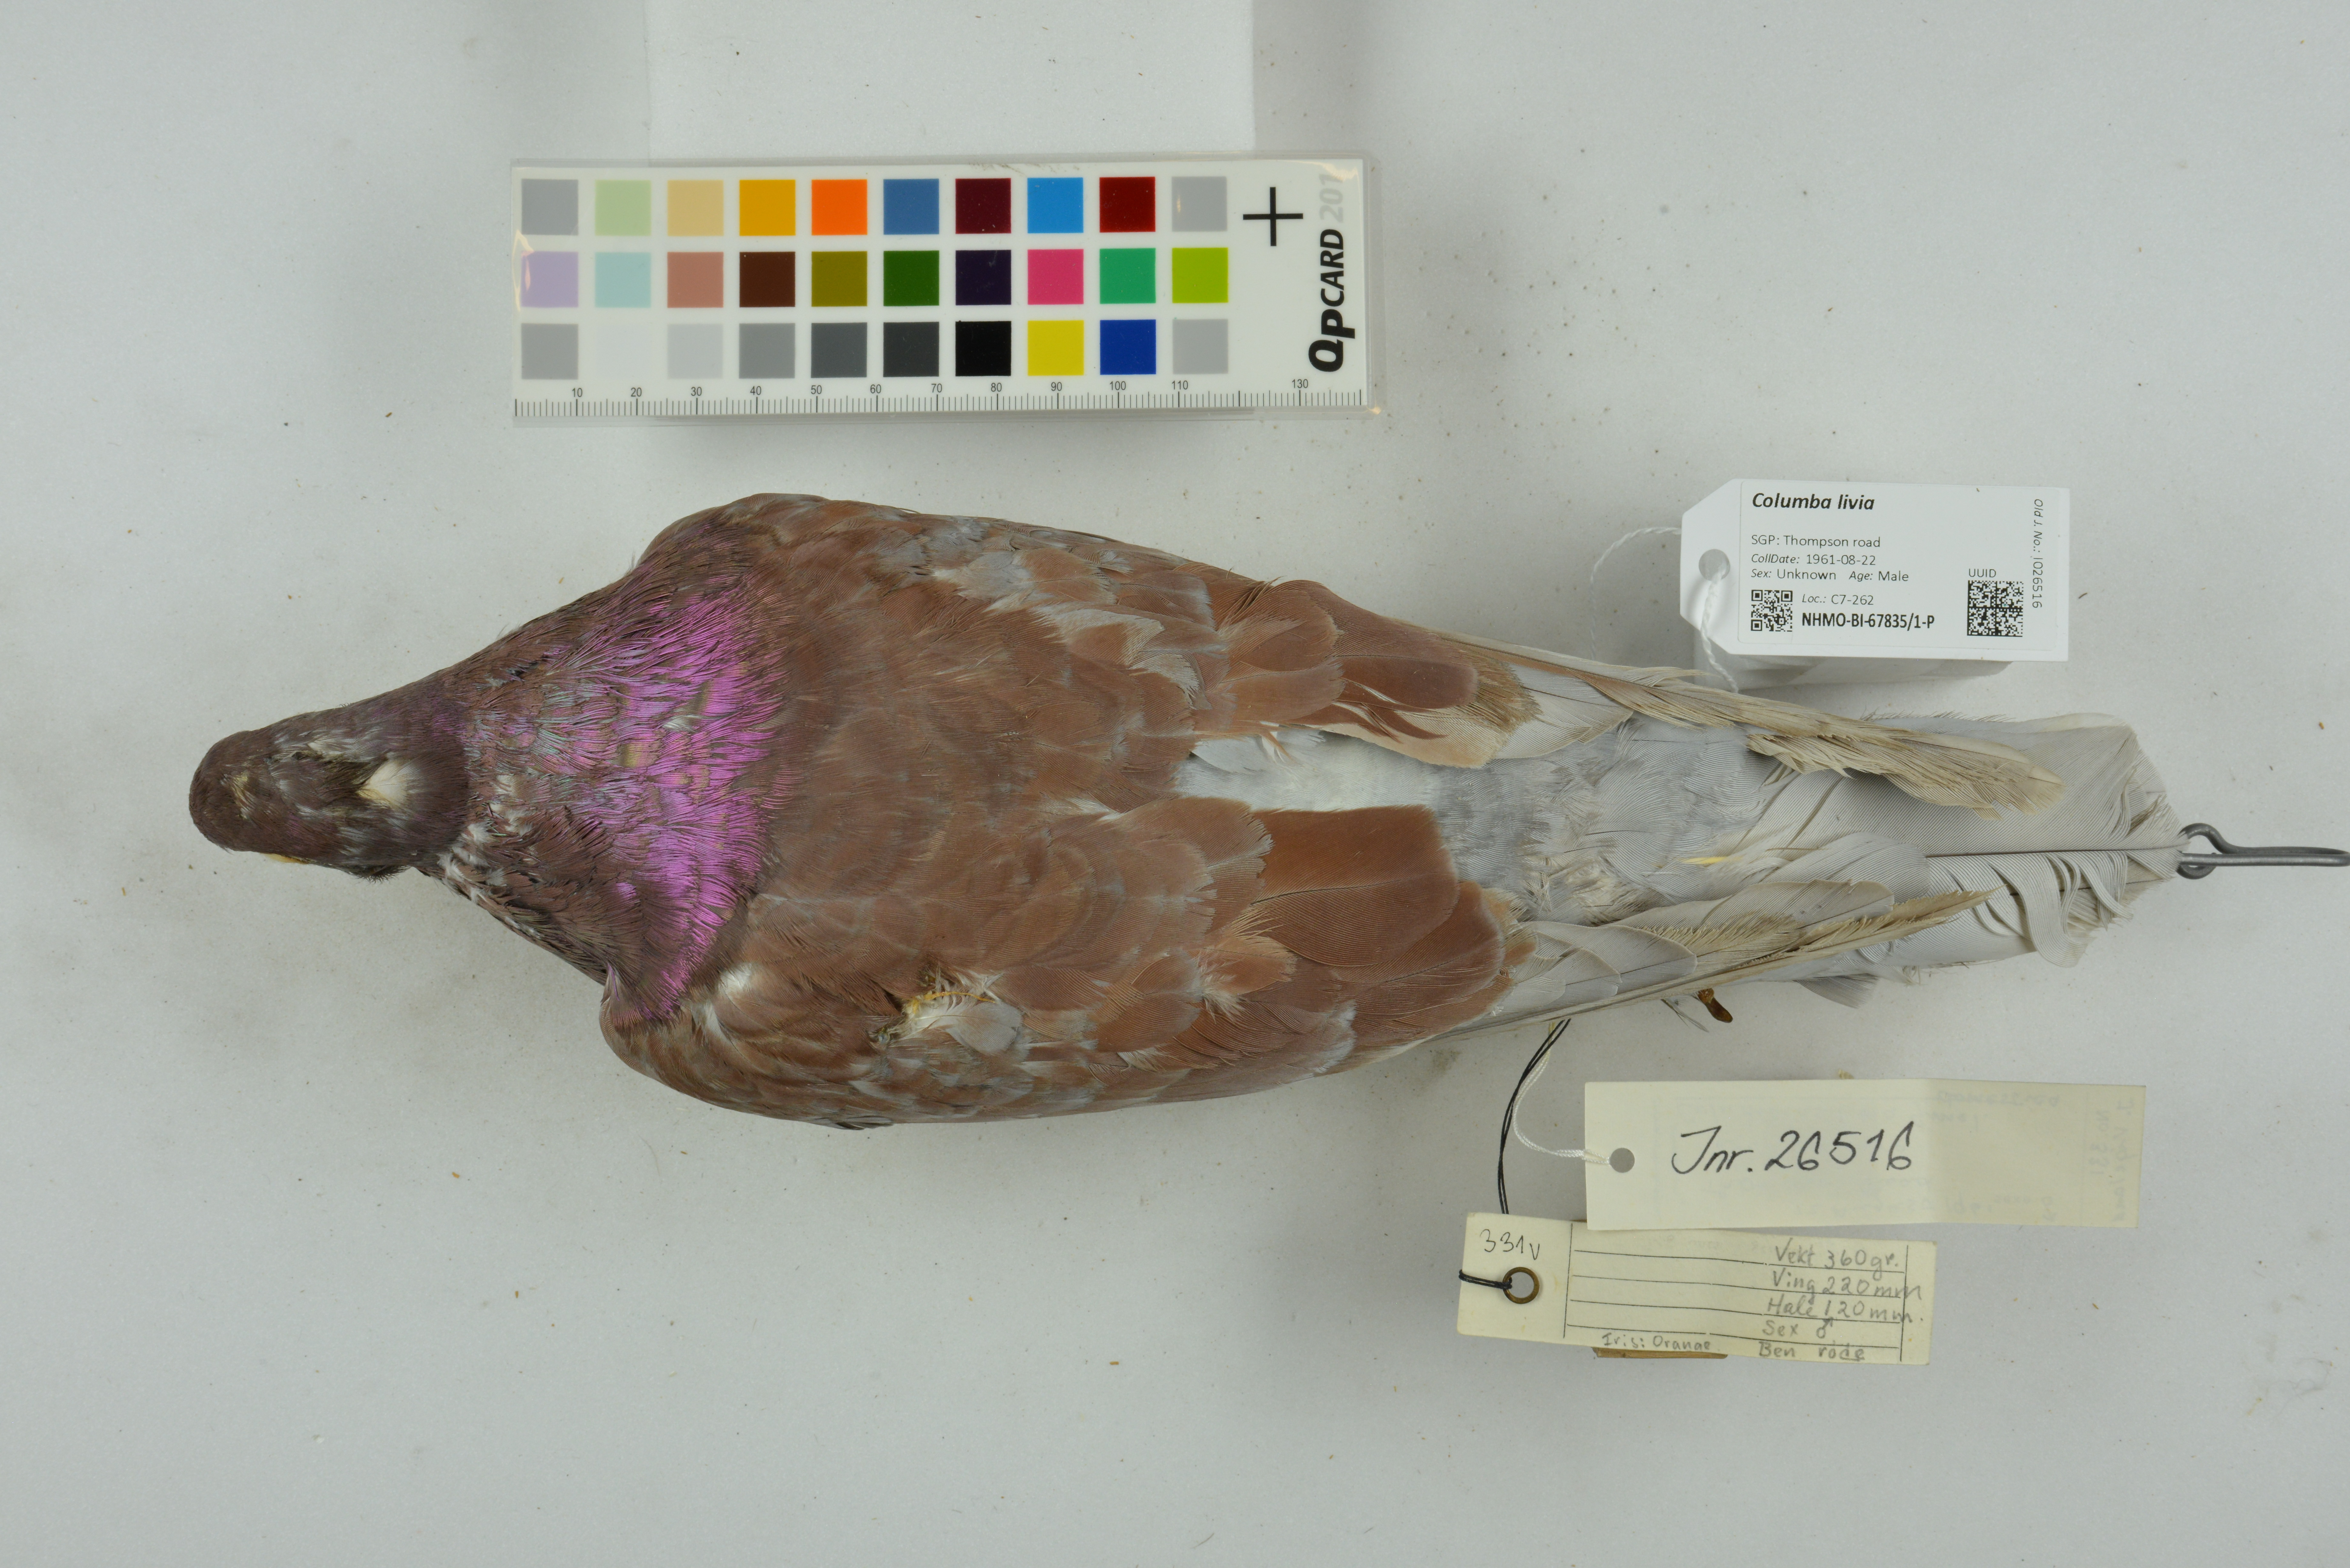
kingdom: Animalia
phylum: Chordata
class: Aves
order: Columbiformes
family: Columbidae
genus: Columba
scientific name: Columba livia
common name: Rock pigeon
